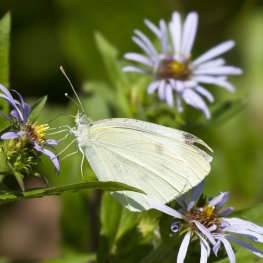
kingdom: Animalia
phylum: Arthropoda
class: Insecta
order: Lepidoptera
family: Pieridae
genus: Pieris
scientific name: Pieris rapae
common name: Cabbage White
